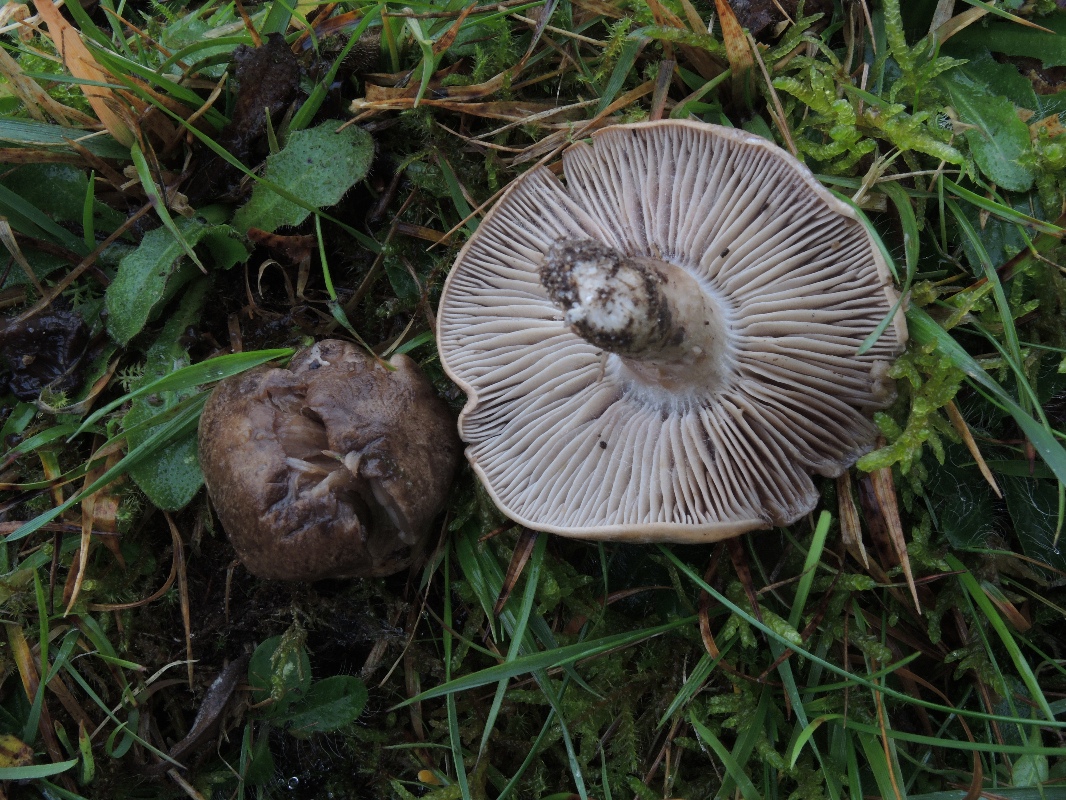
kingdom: Fungi
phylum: Basidiomycota
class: Agaricomycetes
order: Agaricales
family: Tricholomataceae
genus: Pseudotricholoma
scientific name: Pseudotricholoma metapodium
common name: rødmende alfehat
